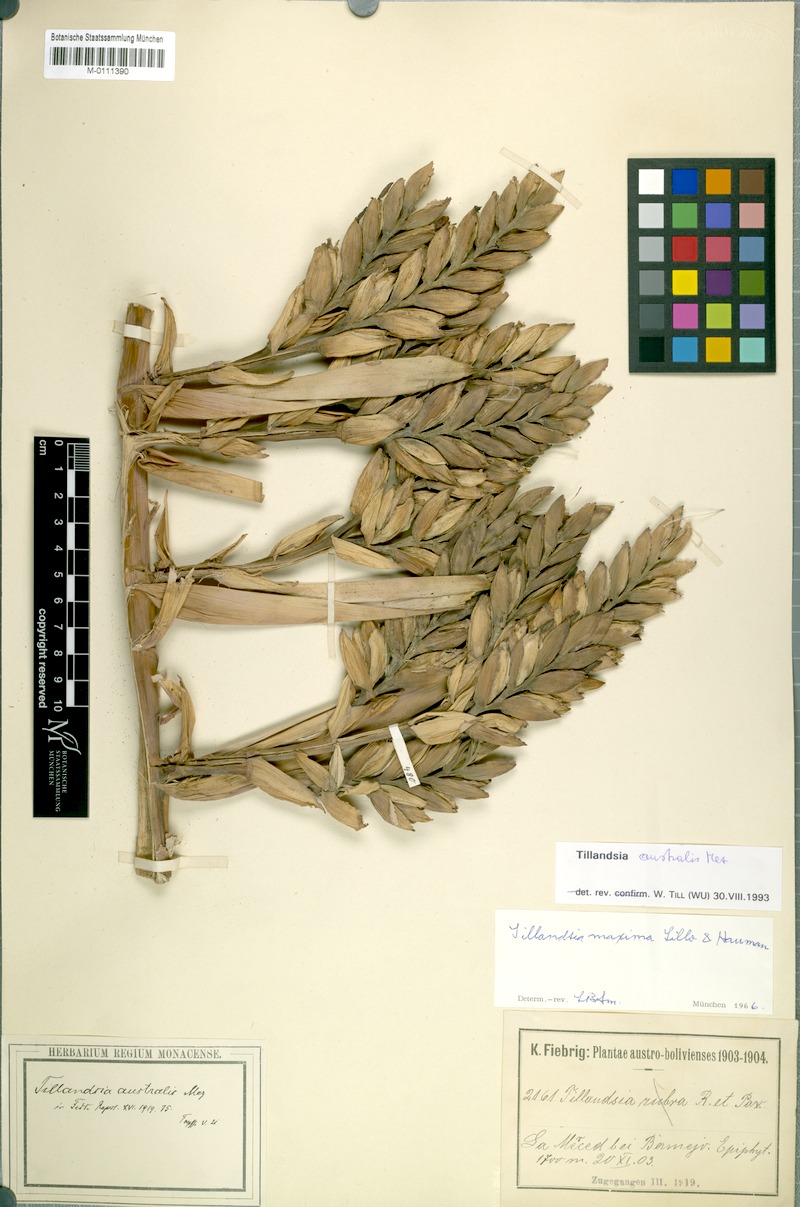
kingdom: Plantae
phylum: Tracheophyta
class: Liliopsida
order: Poales
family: Bromeliaceae
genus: Tillandsia
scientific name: Tillandsia australis
